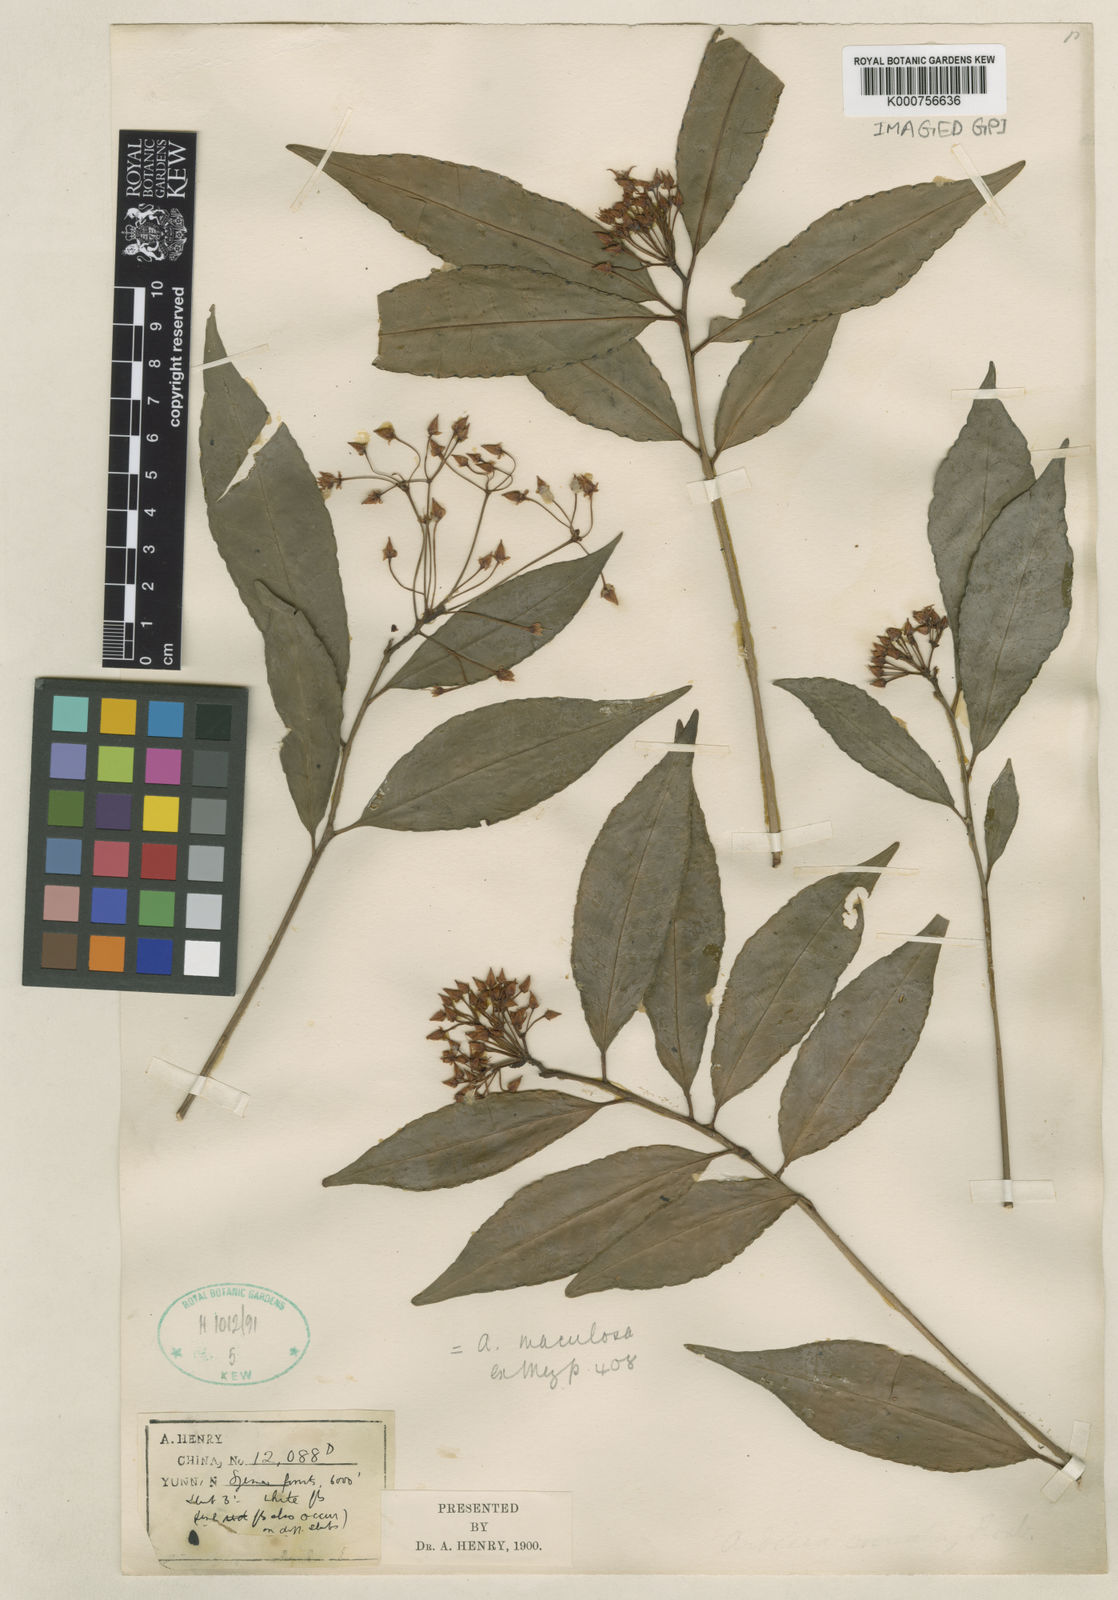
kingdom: Plantae
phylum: Tracheophyta
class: Magnoliopsida
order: Ericales
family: Primulaceae
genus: Ardisia
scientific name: Ardisia polysticta
